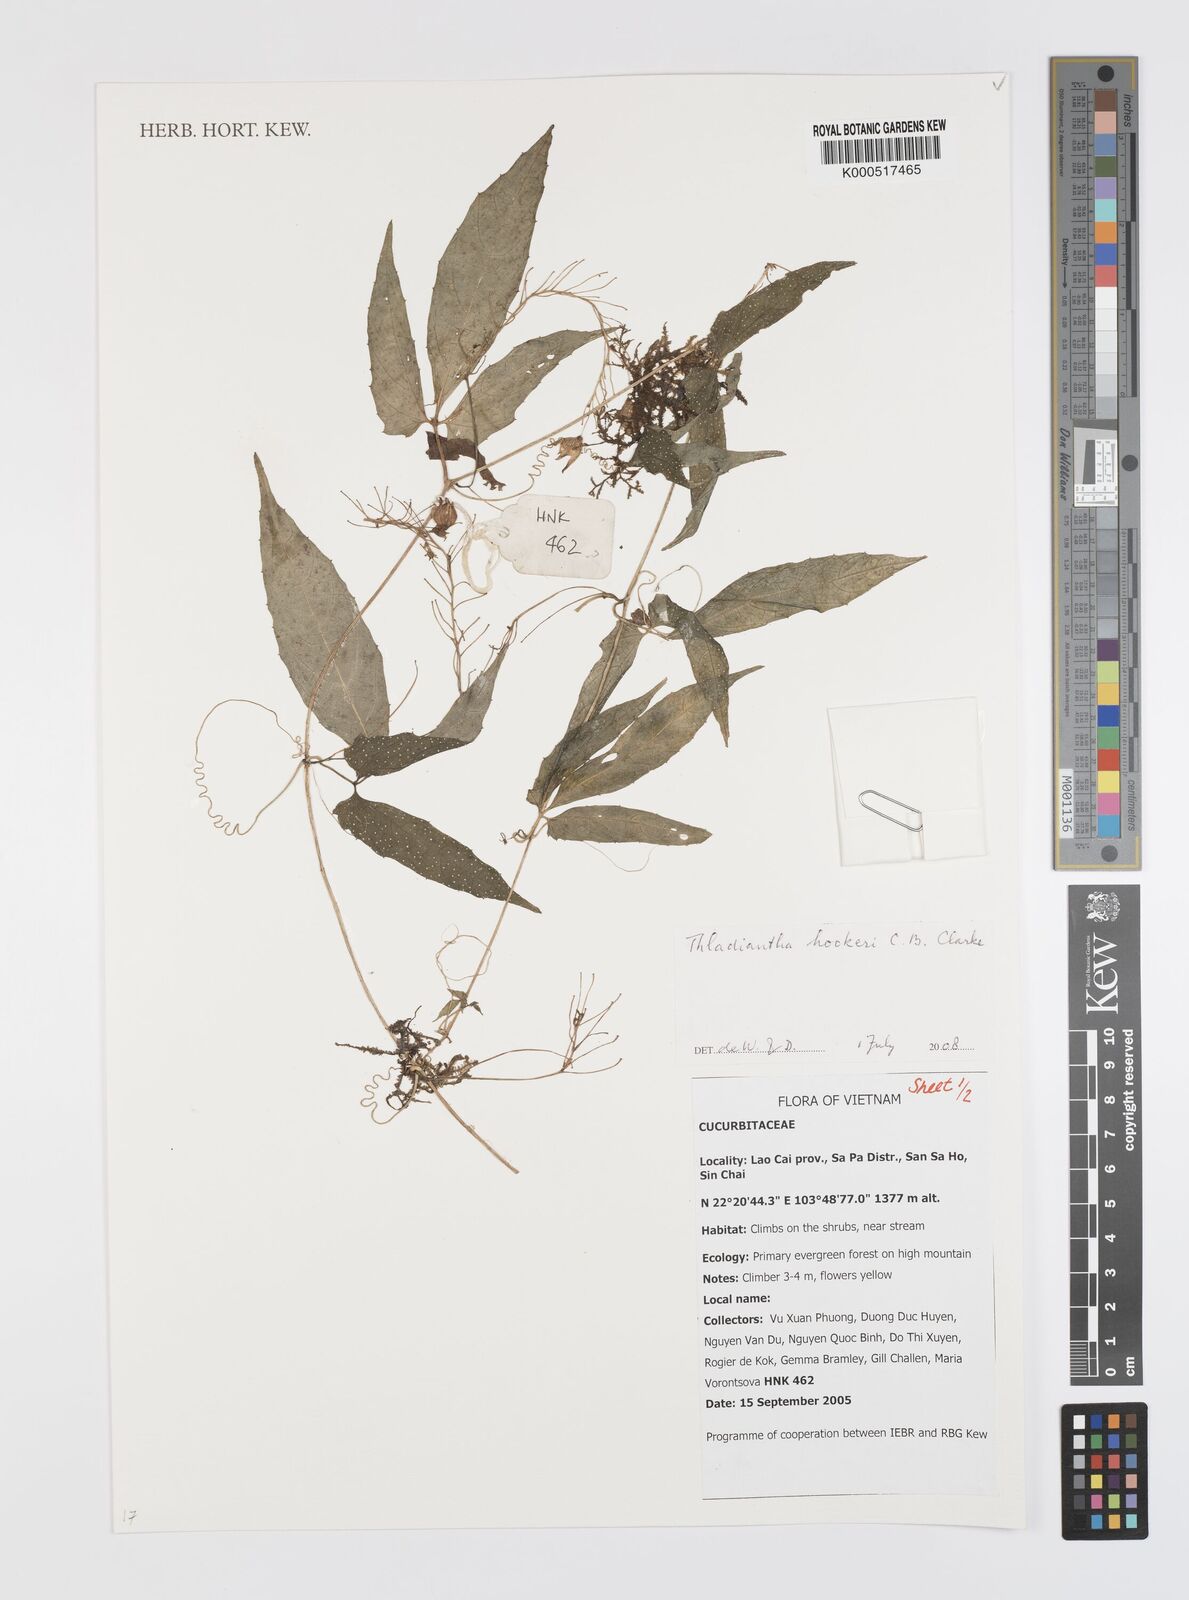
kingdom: Plantae
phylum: Tracheophyta
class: Magnoliopsida
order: Cucurbitales
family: Cucurbitaceae
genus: Thladiantha
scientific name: Thladiantha hookeri
